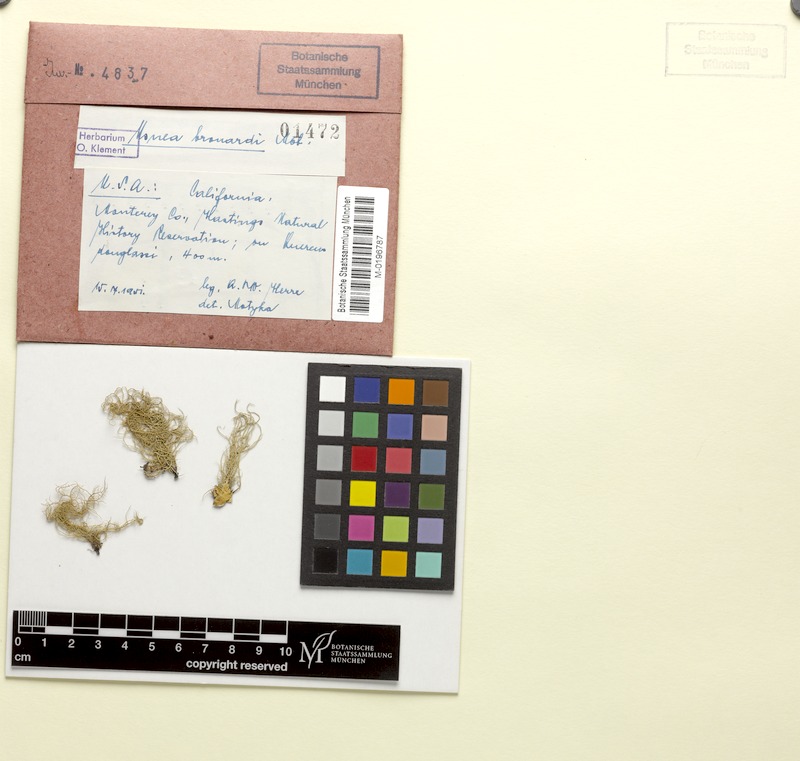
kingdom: Fungi
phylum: Ascomycota
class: Lecanoromycetes
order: Lecanorales
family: Parmeliaceae
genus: Usnea
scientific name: Usnea
